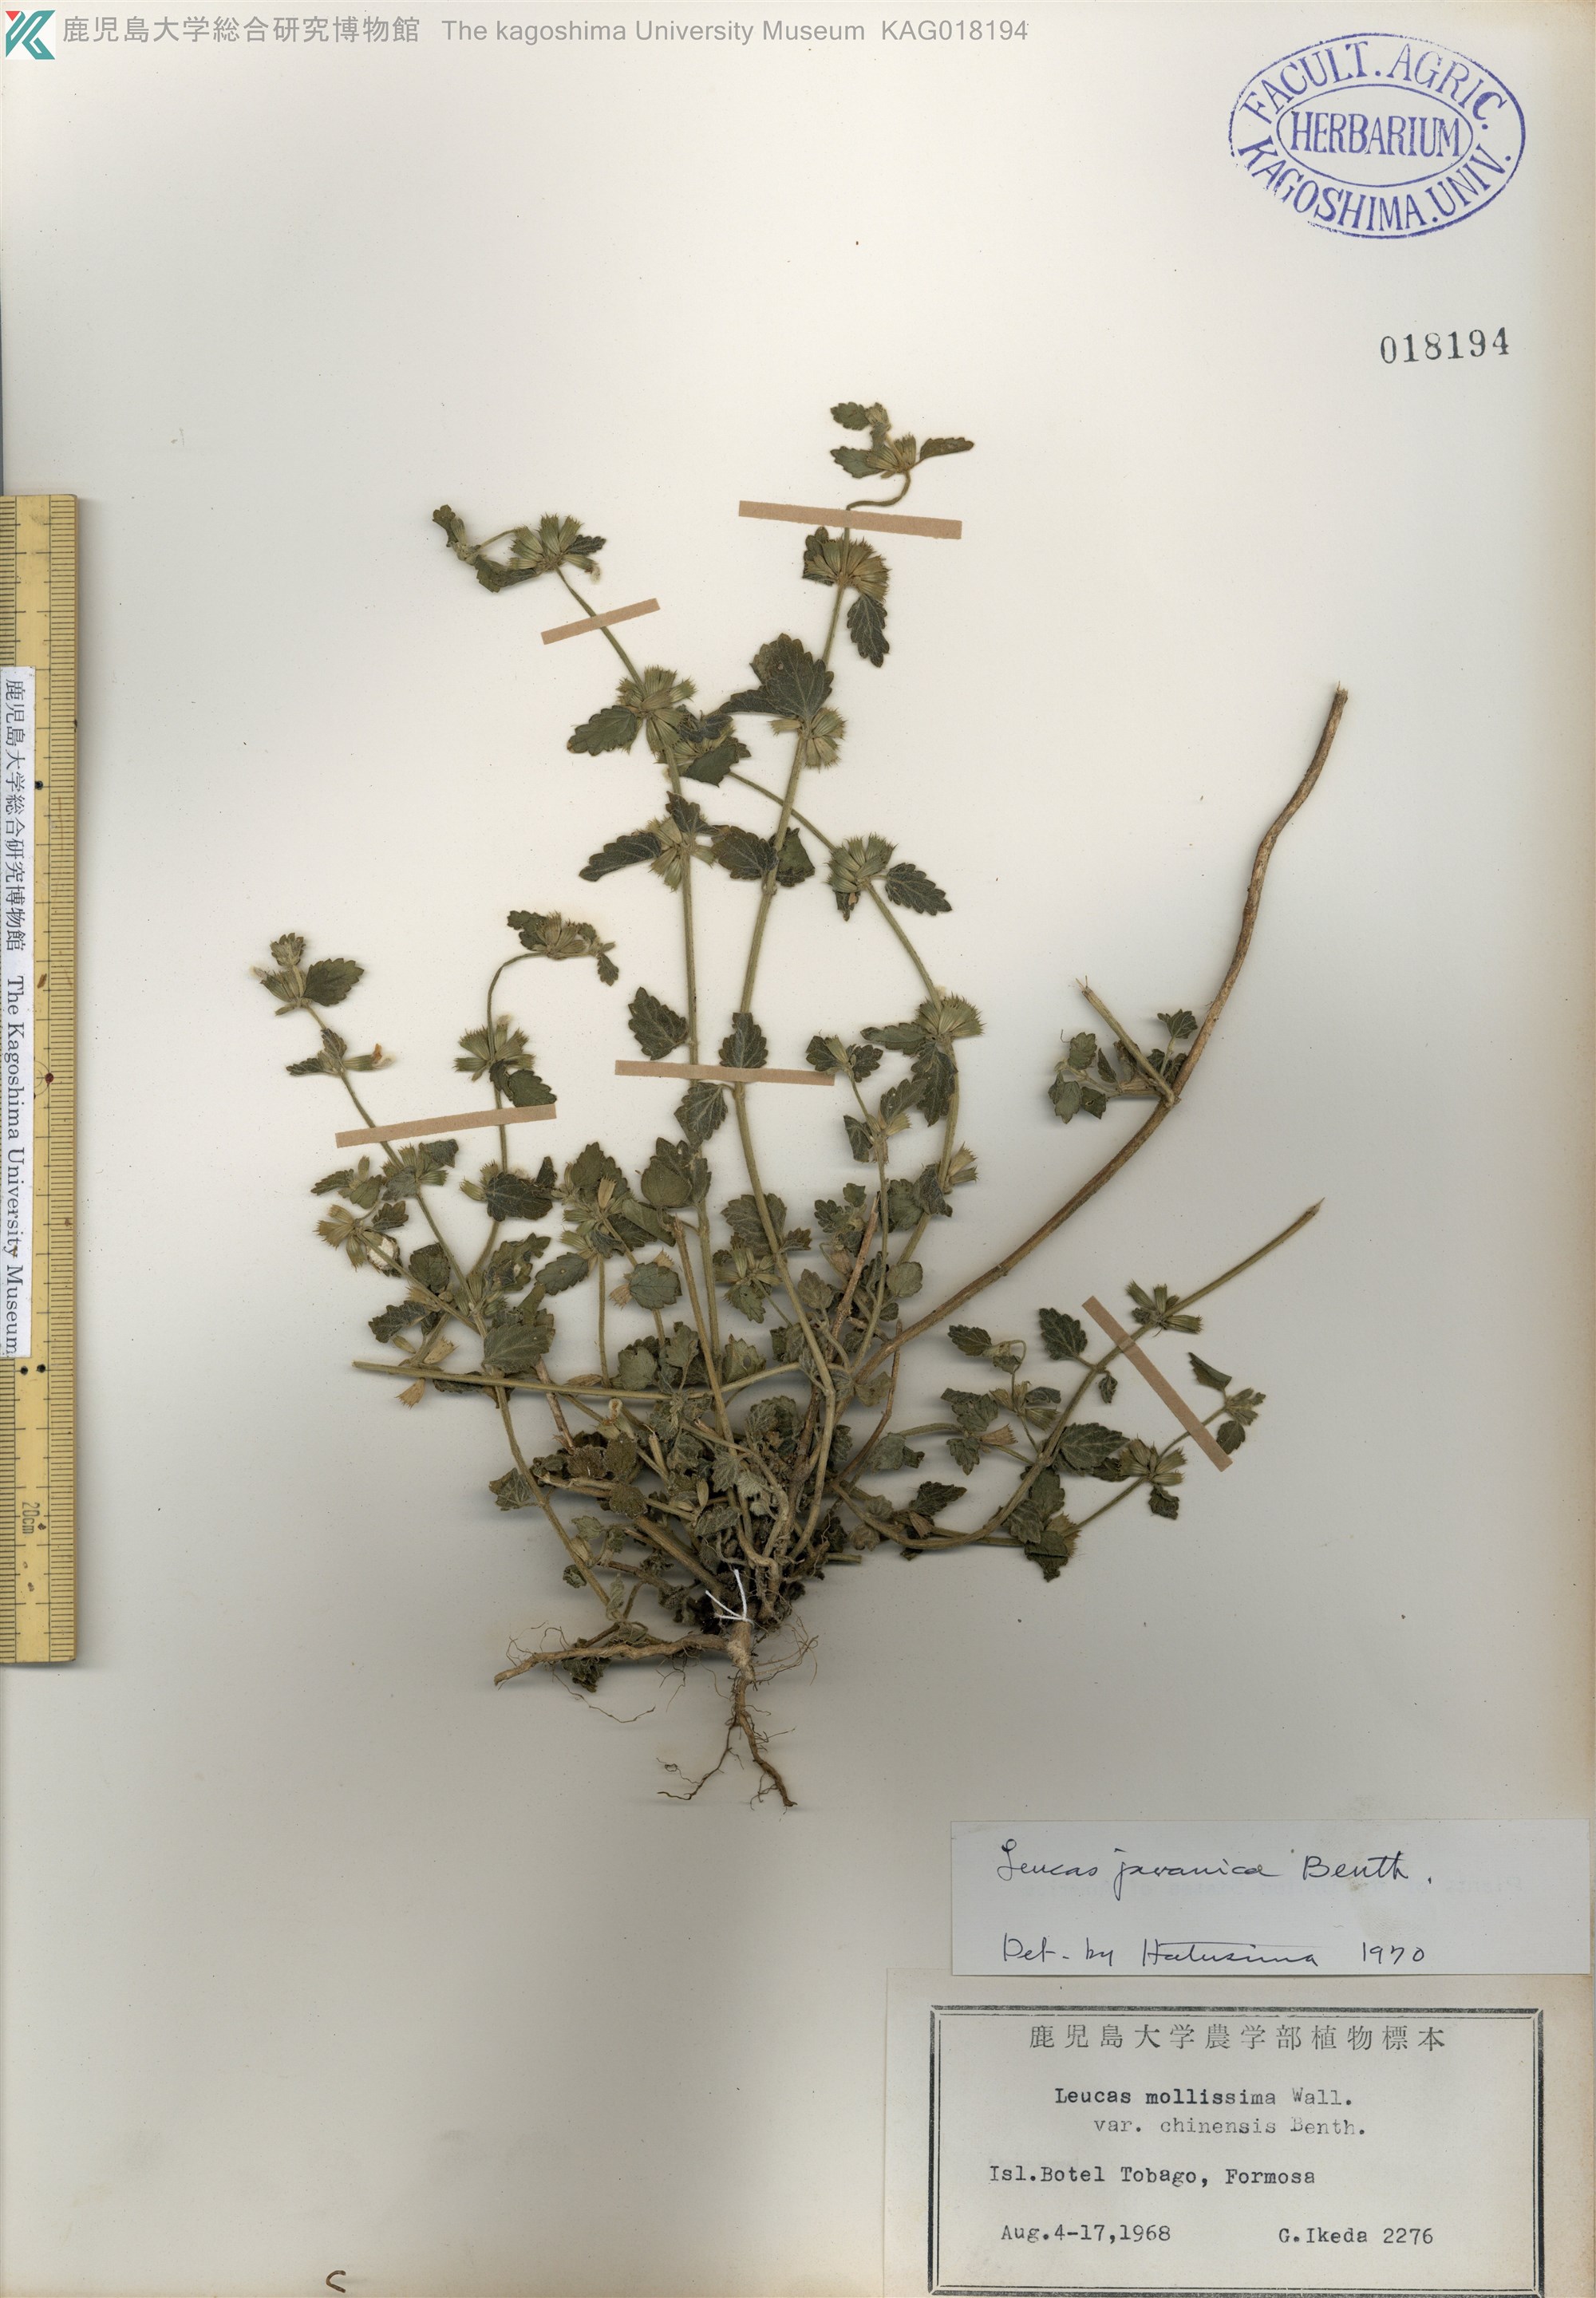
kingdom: Plantae
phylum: Tracheophyta
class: Magnoliopsida
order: Lamiales
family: Lamiaceae
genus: Leucas
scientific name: Leucas chinensis
